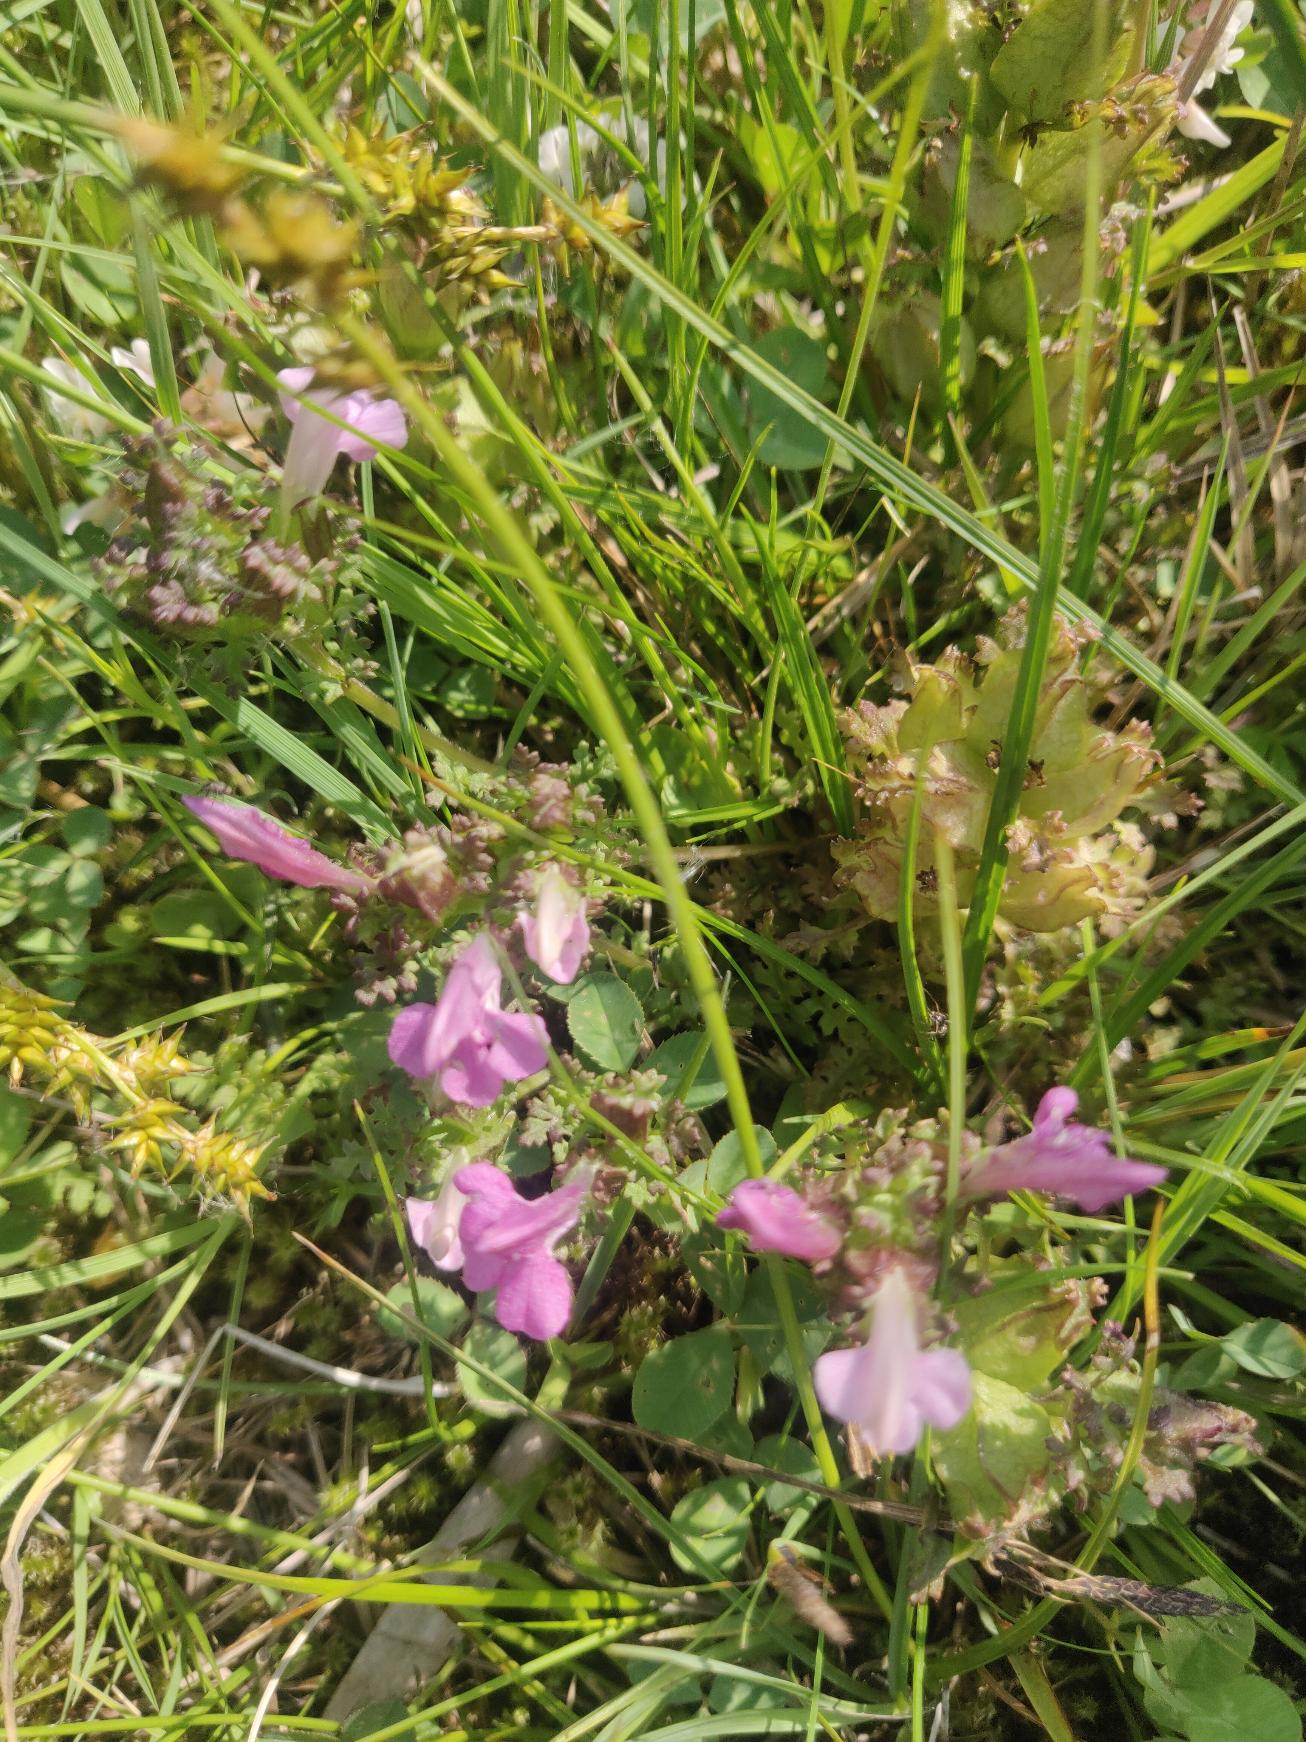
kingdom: Plantae
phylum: Tracheophyta
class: Magnoliopsida
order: Lamiales
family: Orobanchaceae
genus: Pedicularis
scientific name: Pedicularis sylvatica
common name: Mose-troldurt
